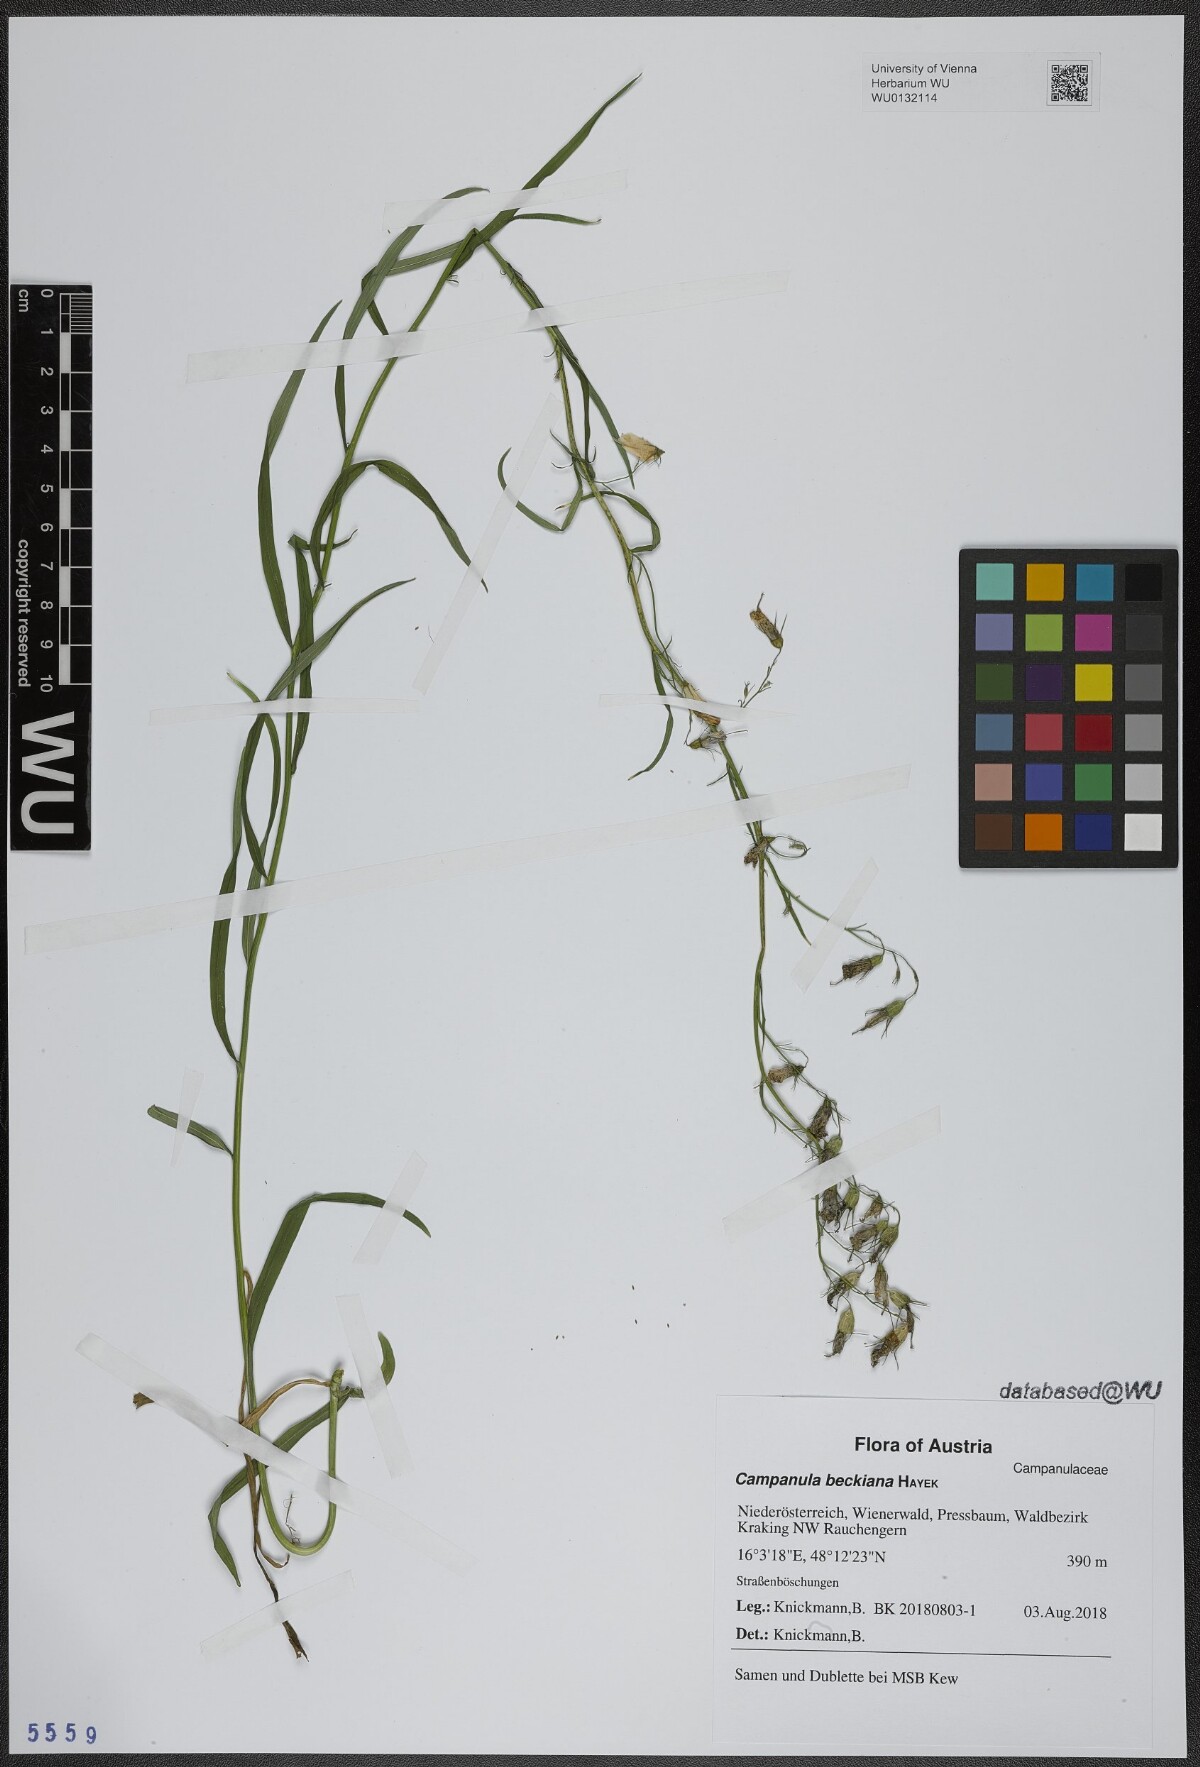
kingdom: Plantae
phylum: Tracheophyta
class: Magnoliopsida
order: Asterales
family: Campanulaceae
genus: Campanula
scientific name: Campanula baumgartenii
